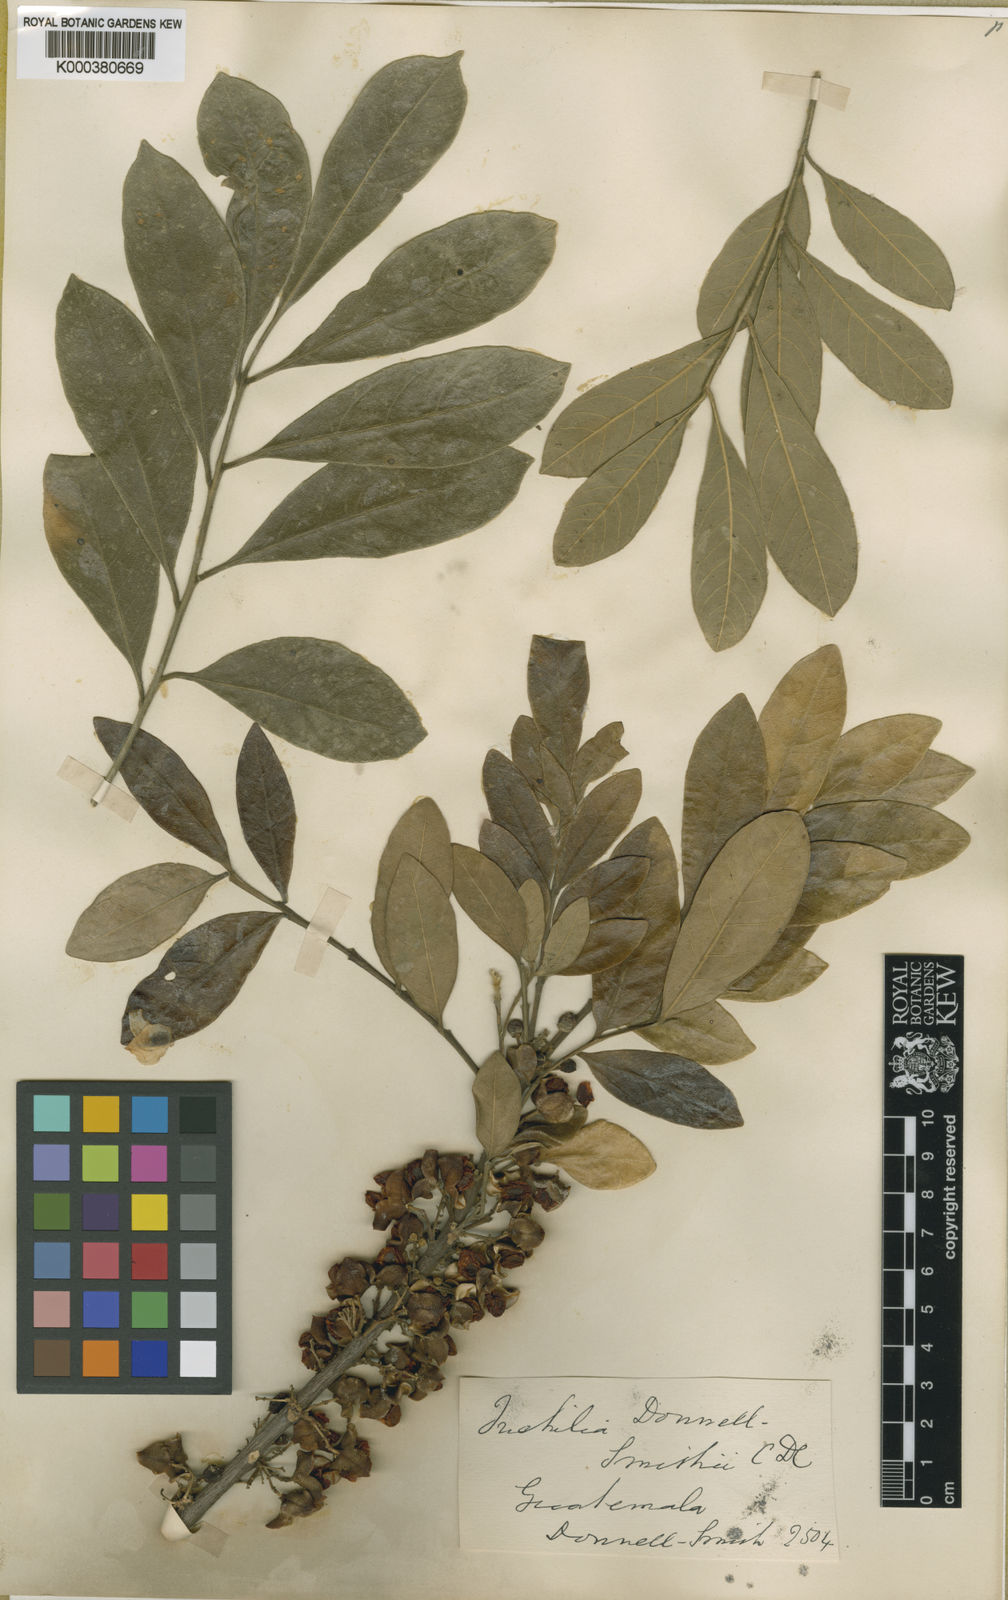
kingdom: Plantae
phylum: Tracheophyta
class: Magnoliopsida
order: Sapindales
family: Meliaceae
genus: Trichilia
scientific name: Trichilia havanensis
